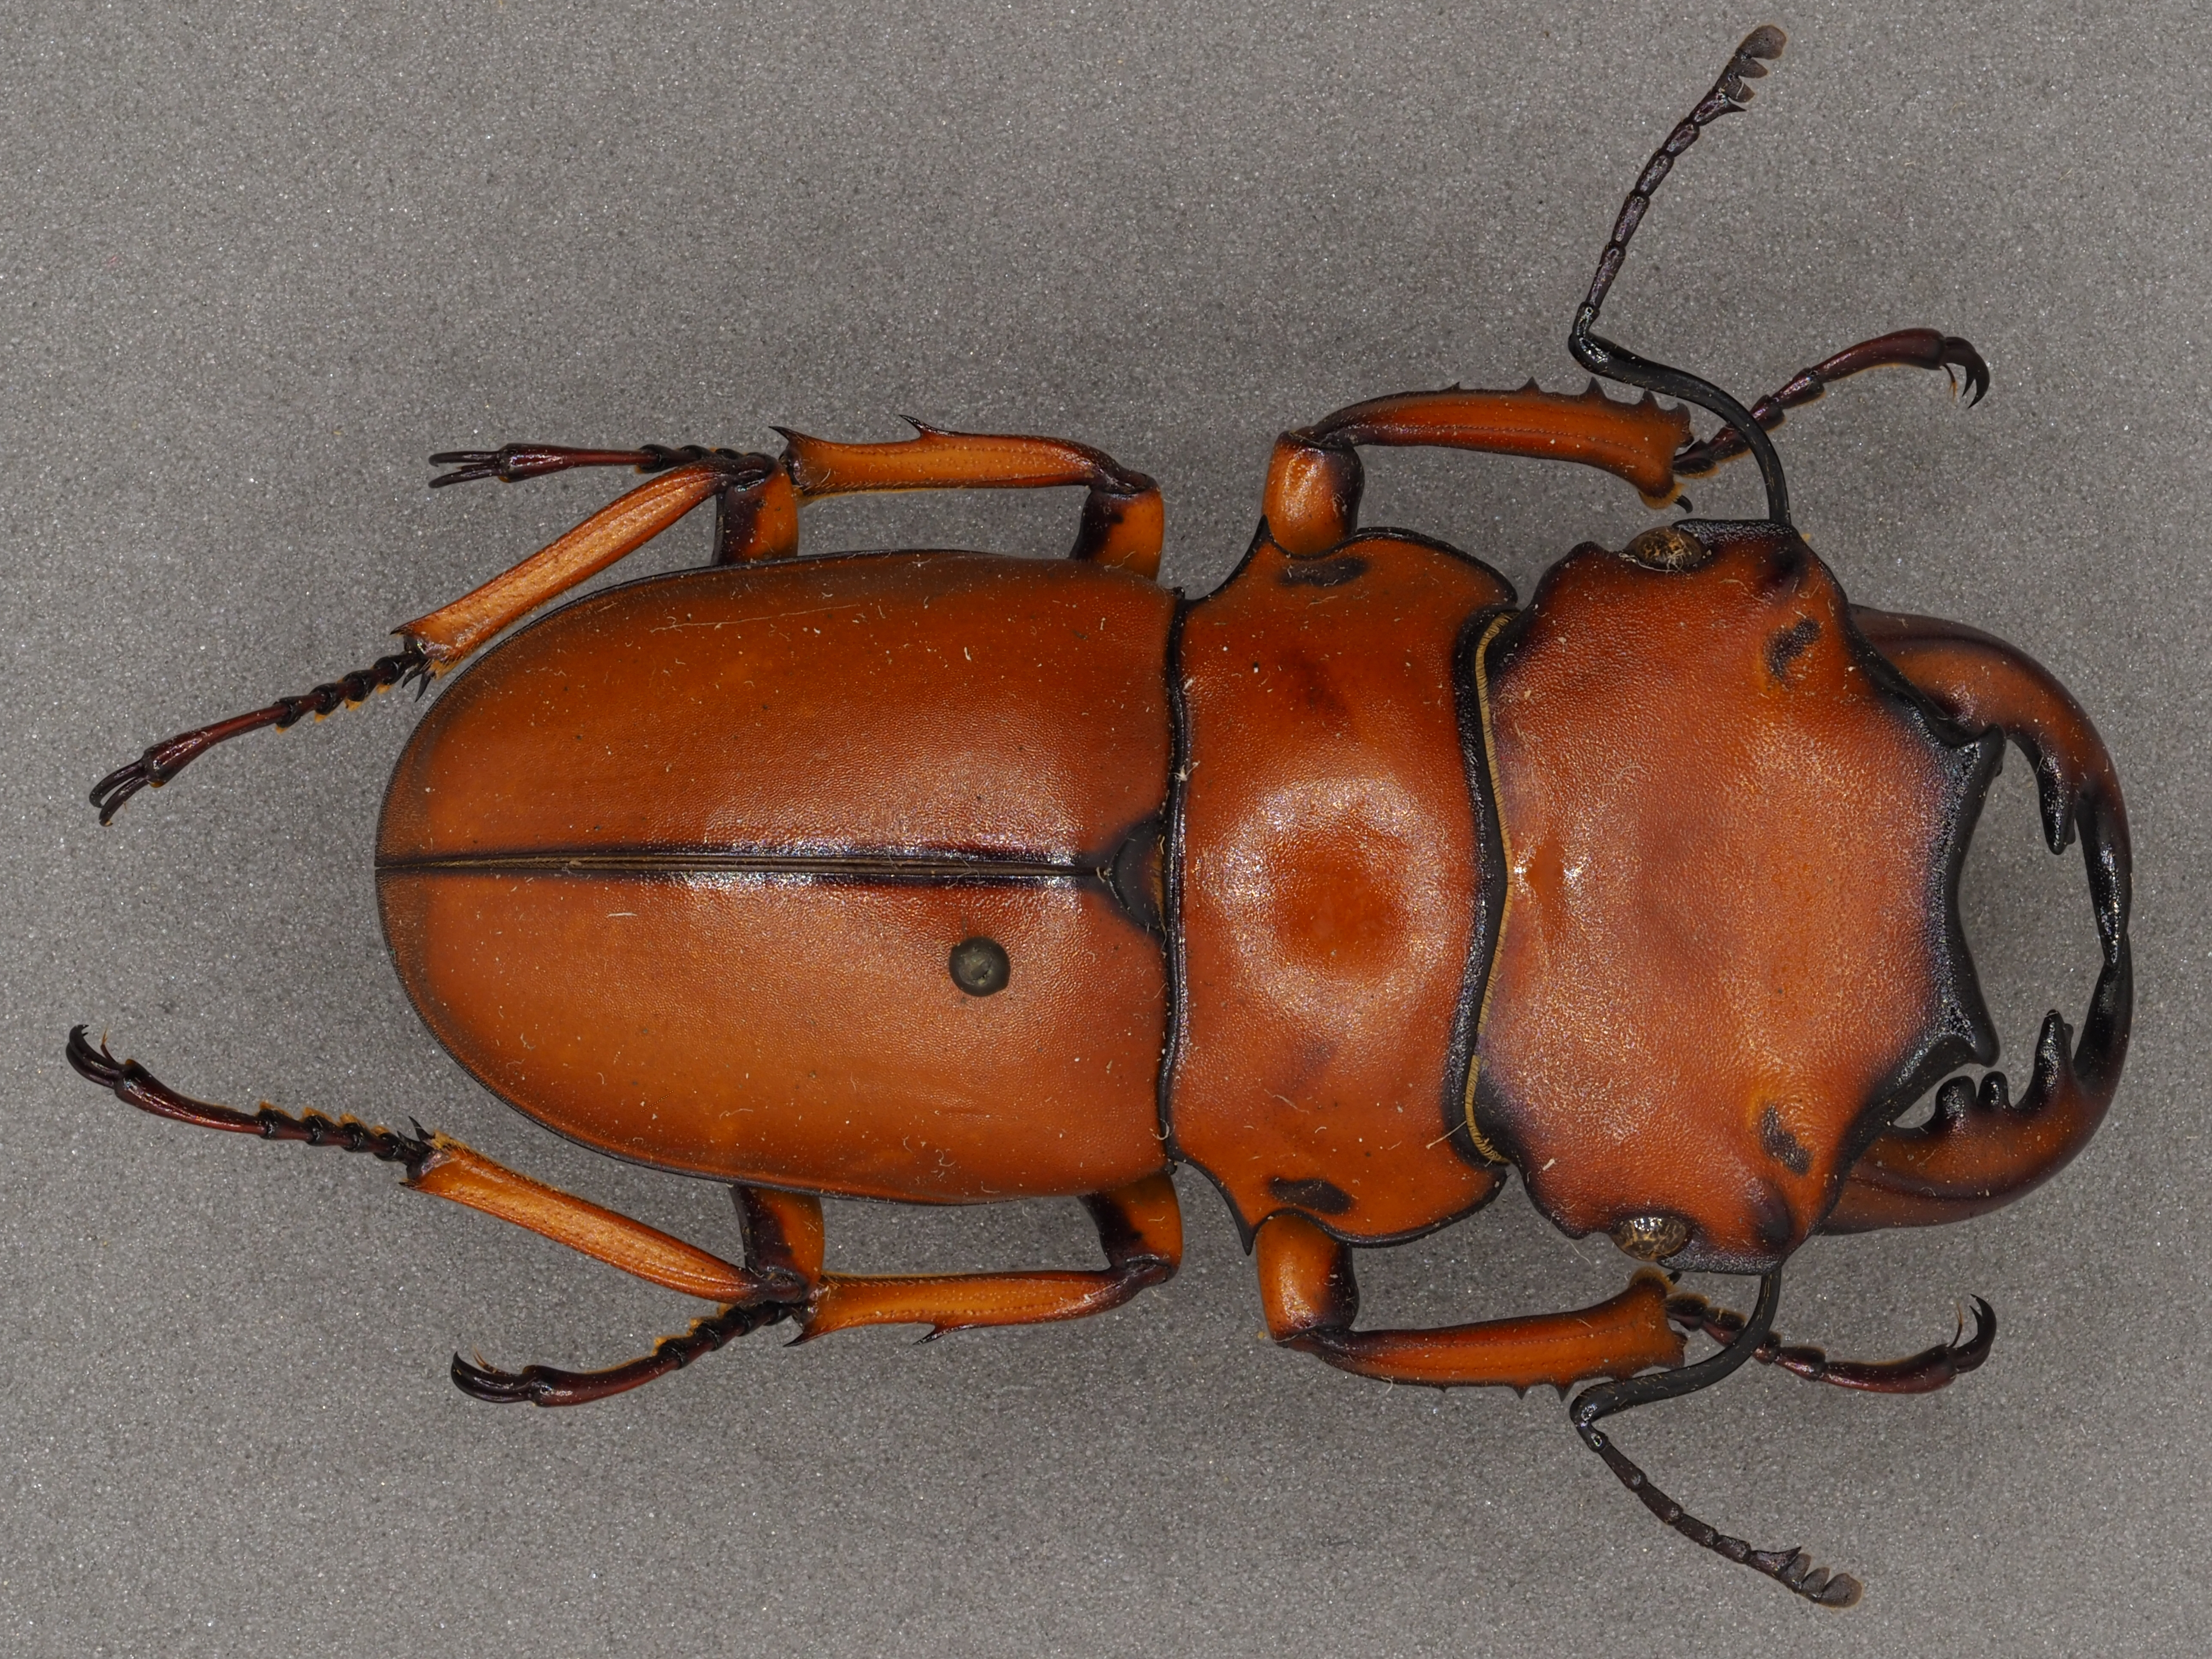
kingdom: Animalia
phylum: Arthropoda
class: Insecta
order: Coleoptera
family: Lucanidae
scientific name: Lucanidae
